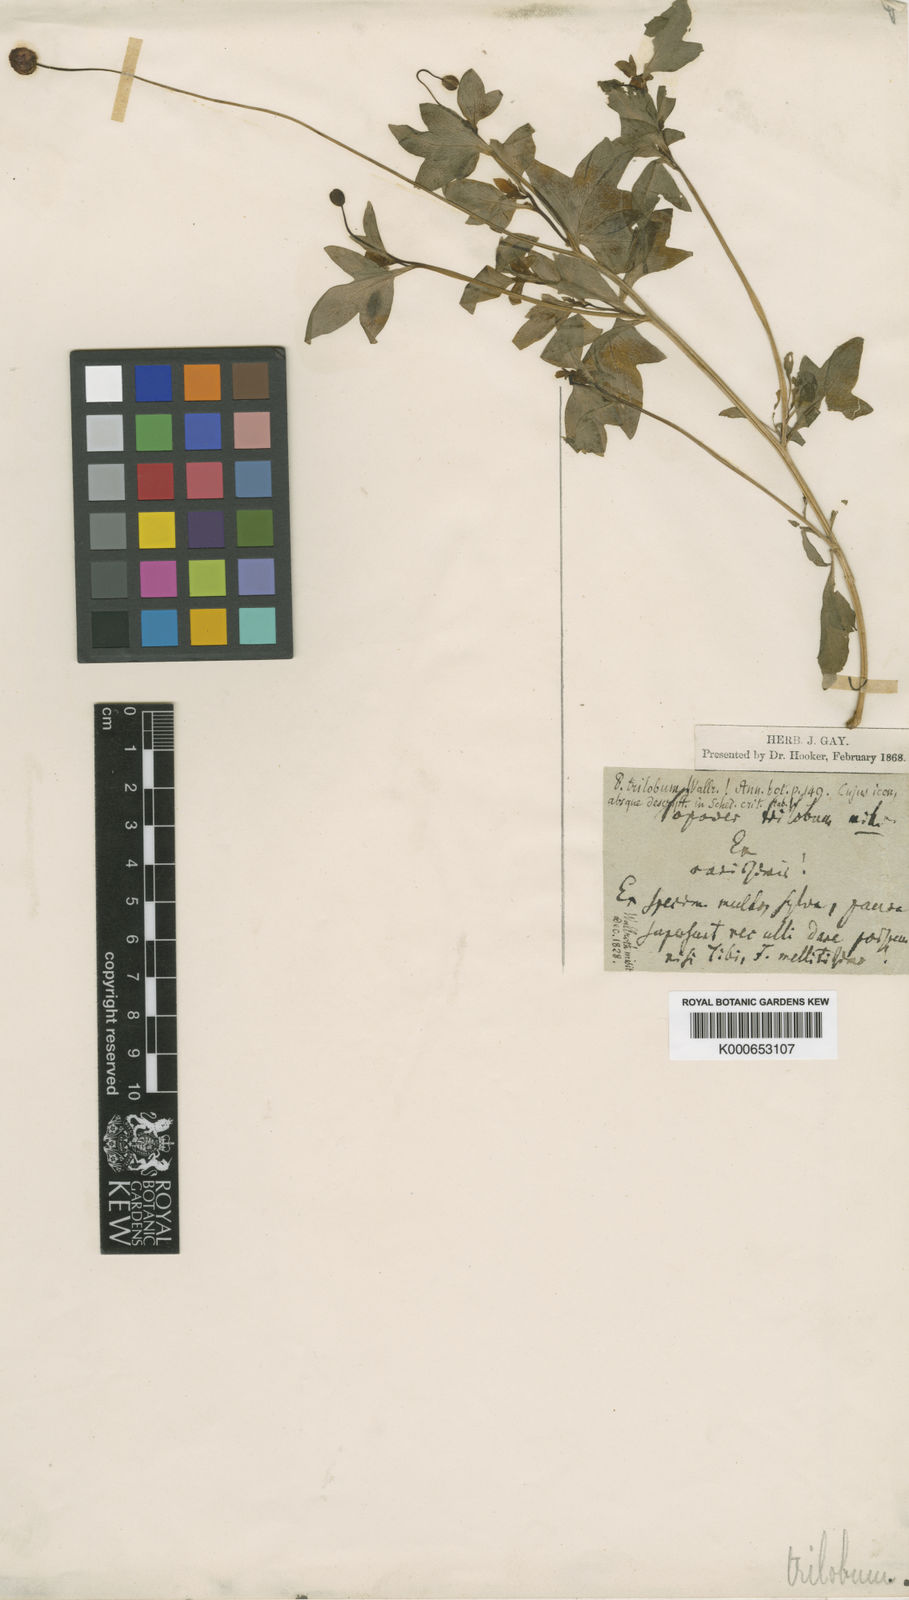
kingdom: Plantae
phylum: Tracheophyta
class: Magnoliopsida
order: Ranunculales
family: Papaveraceae
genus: Papaver
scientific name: Papaver
